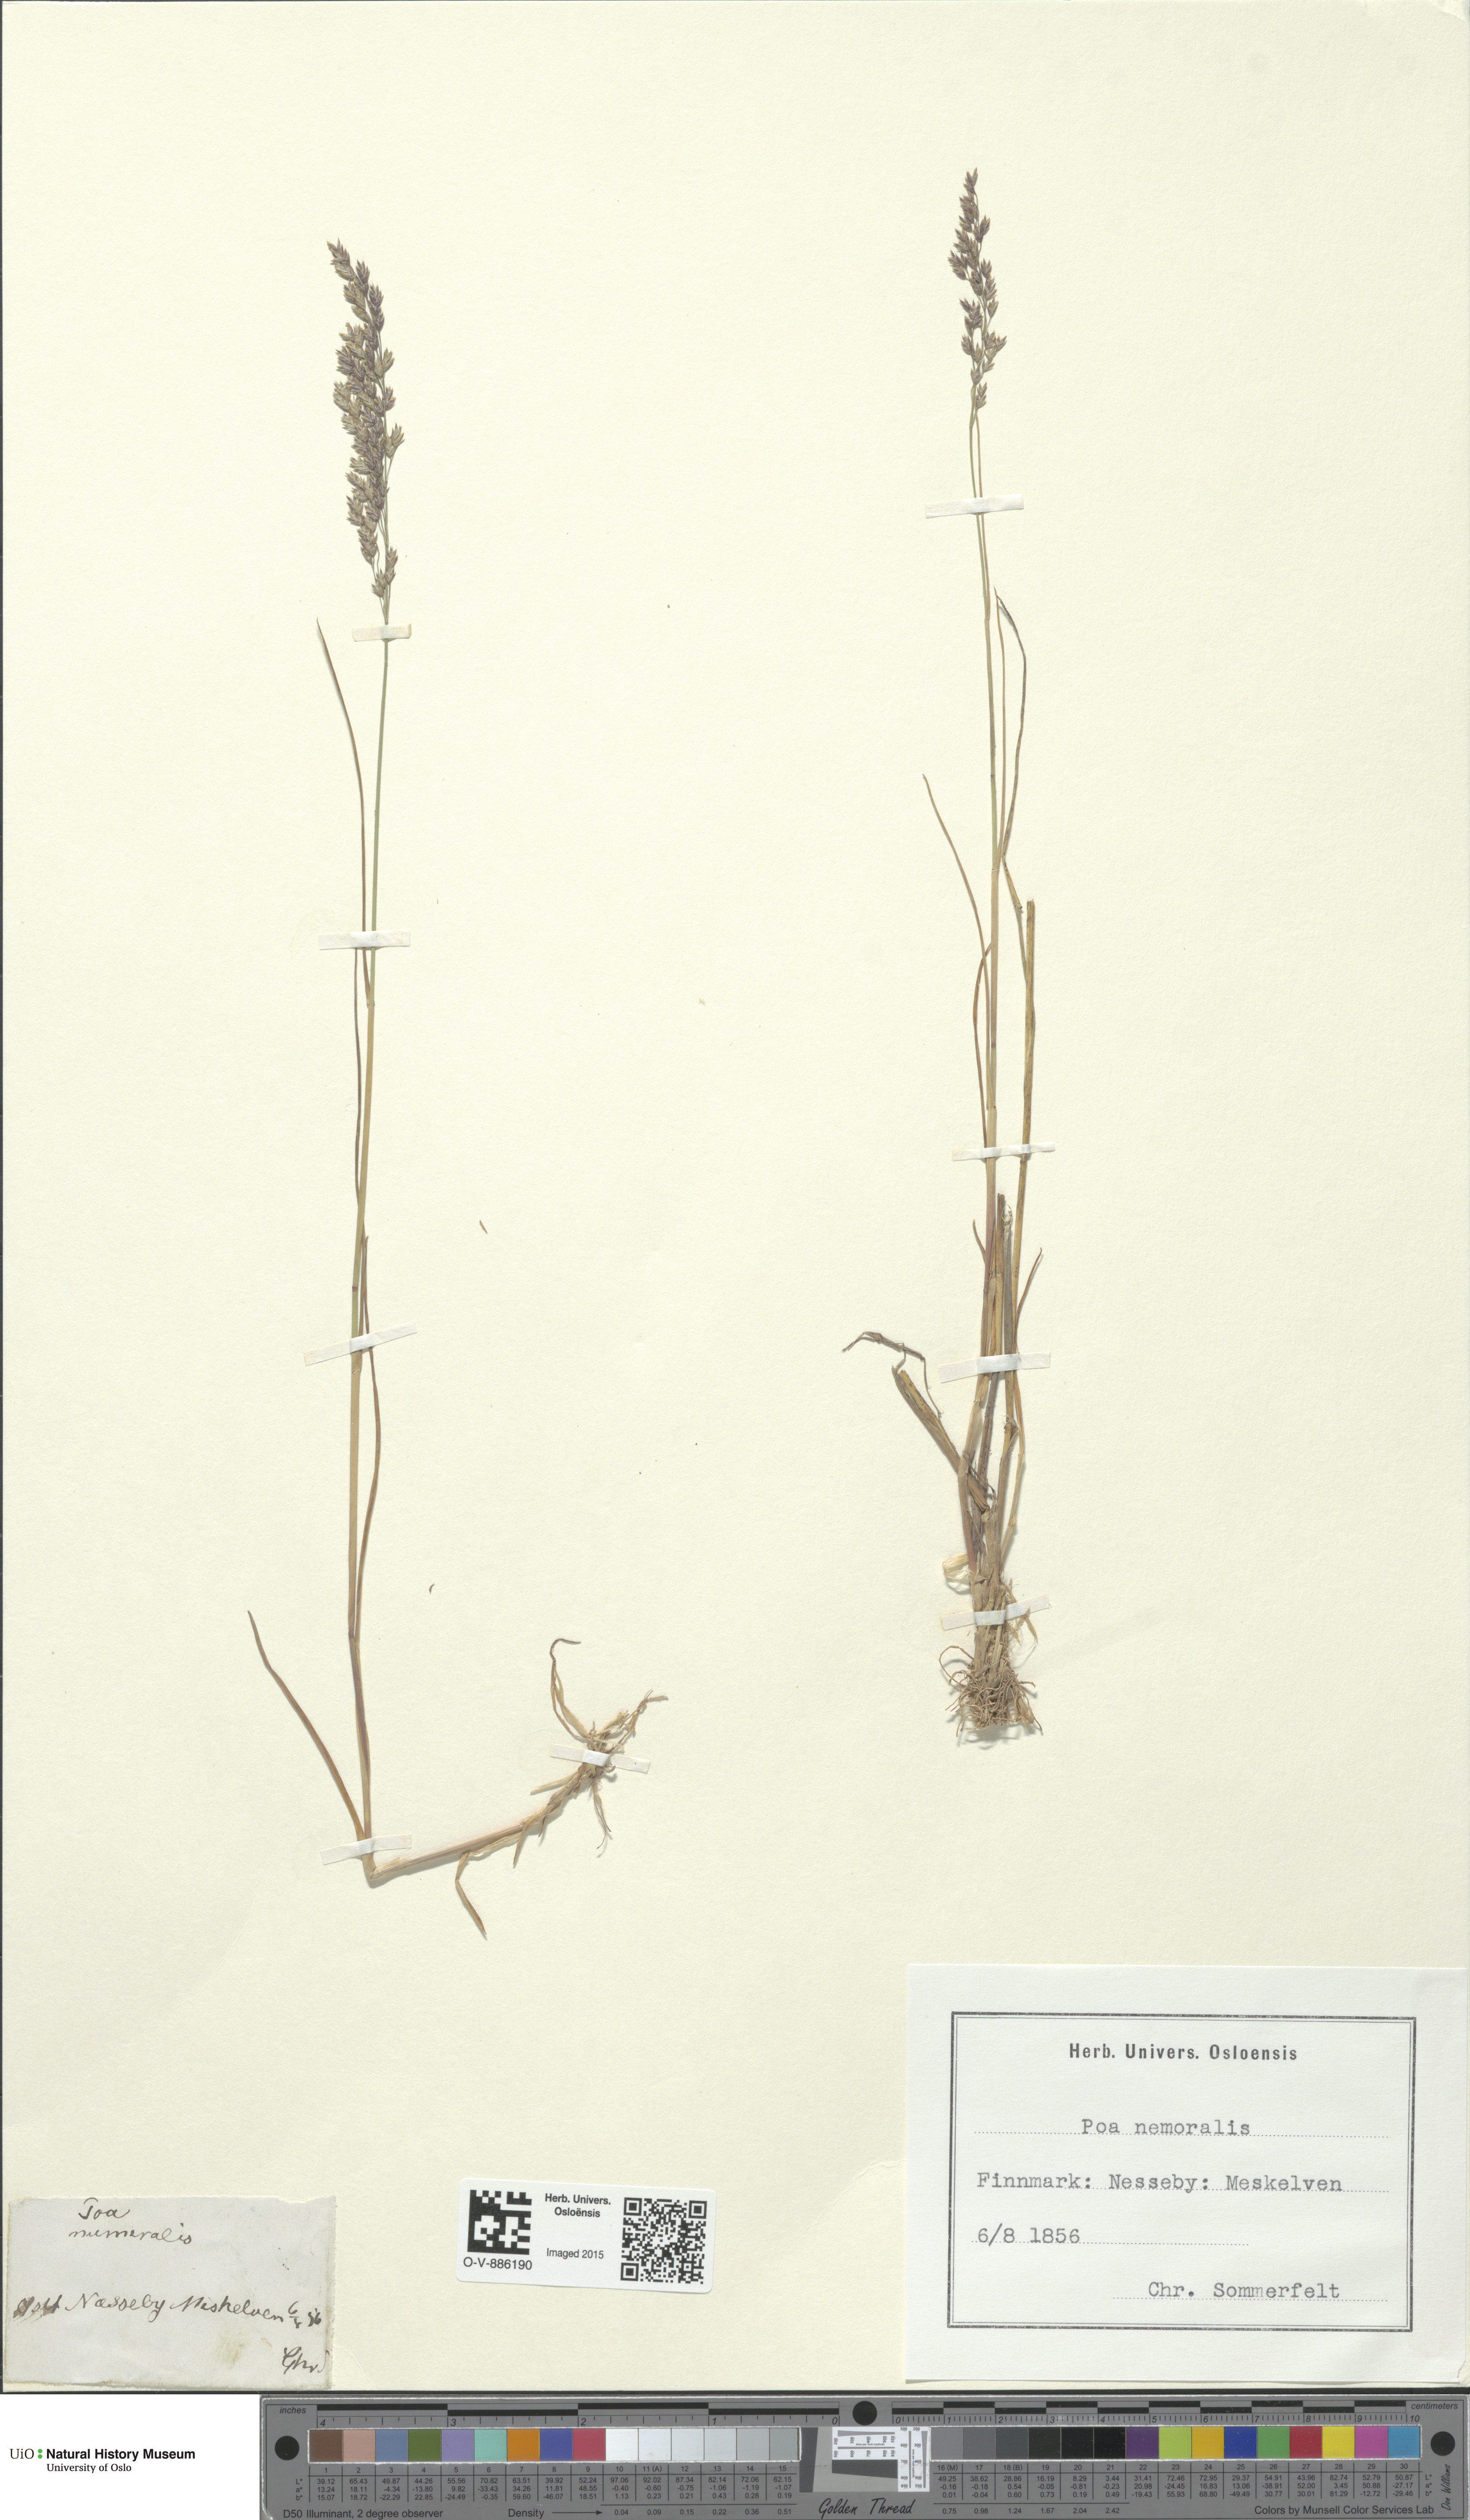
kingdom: Plantae
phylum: Tracheophyta
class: Liliopsida
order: Poales
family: Poaceae
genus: Poa
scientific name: Poa nemoralis
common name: Wood bluegrass
